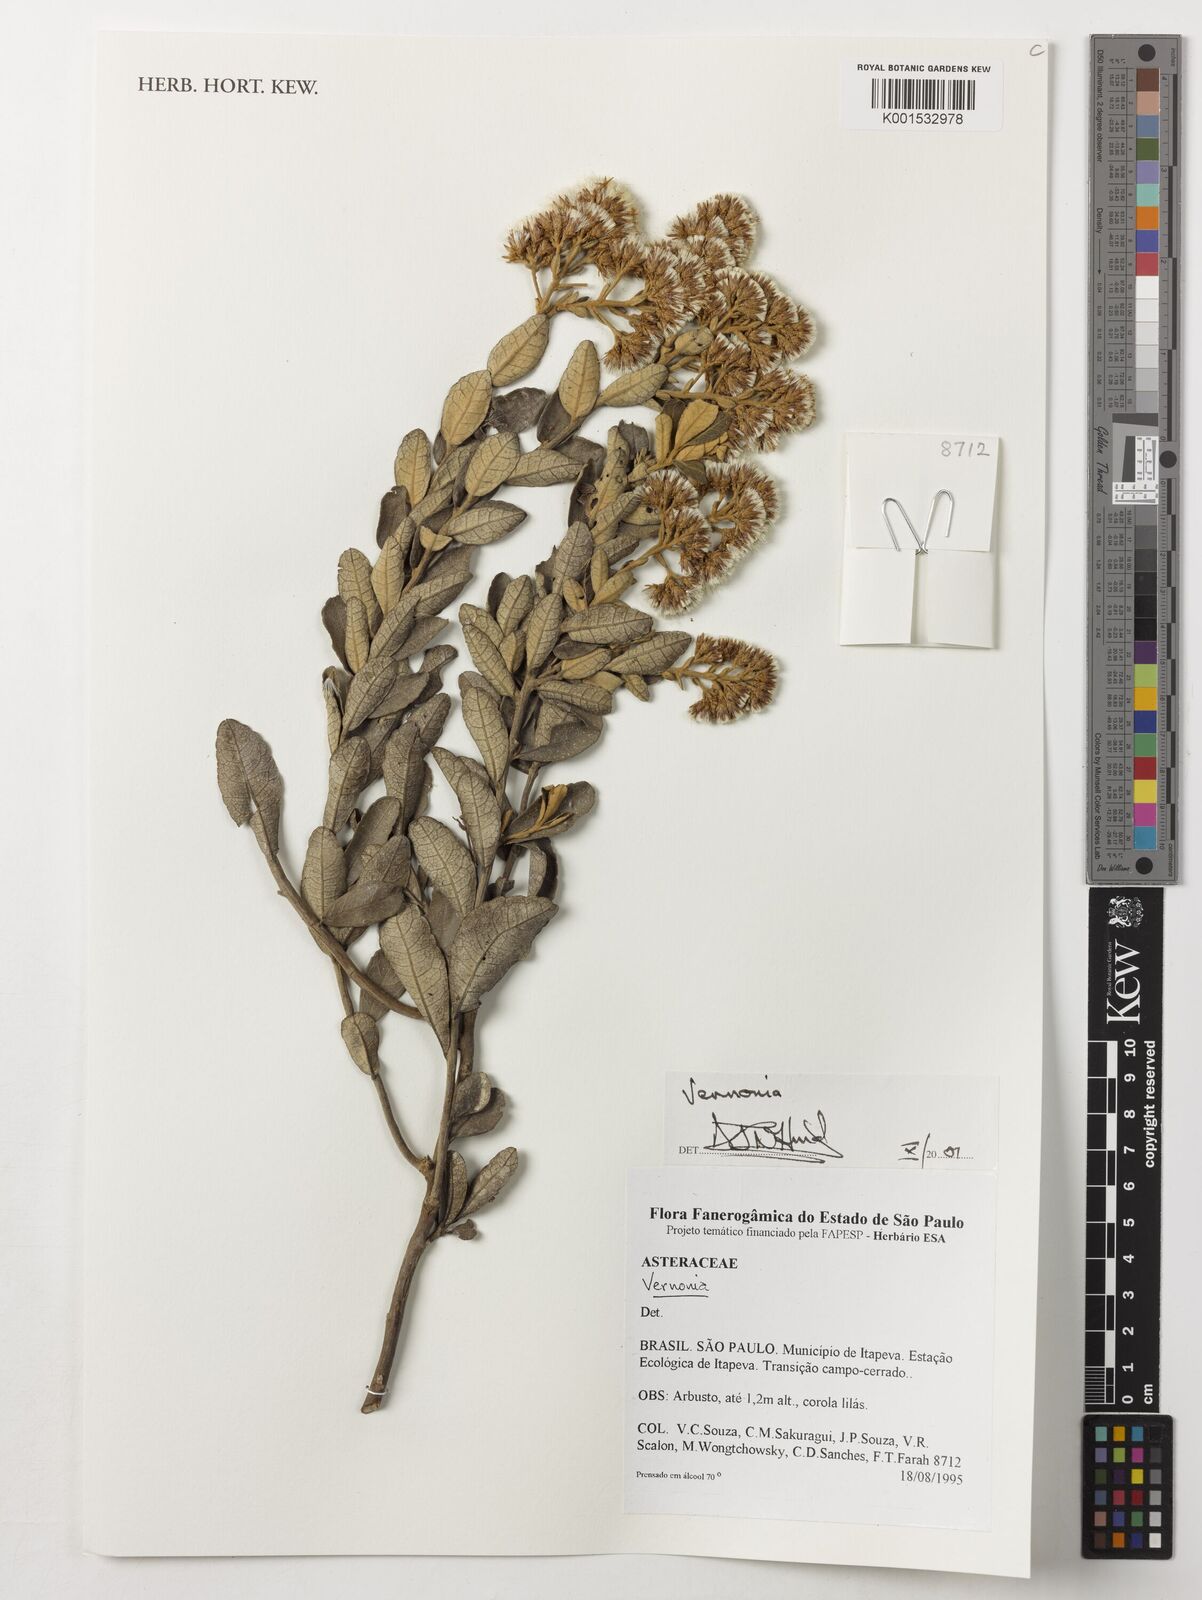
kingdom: Plantae
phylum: Tracheophyta
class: Magnoliopsida
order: Asterales
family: Asteraceae
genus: Vernonanthura
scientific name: Vernonanthura mucronulata
